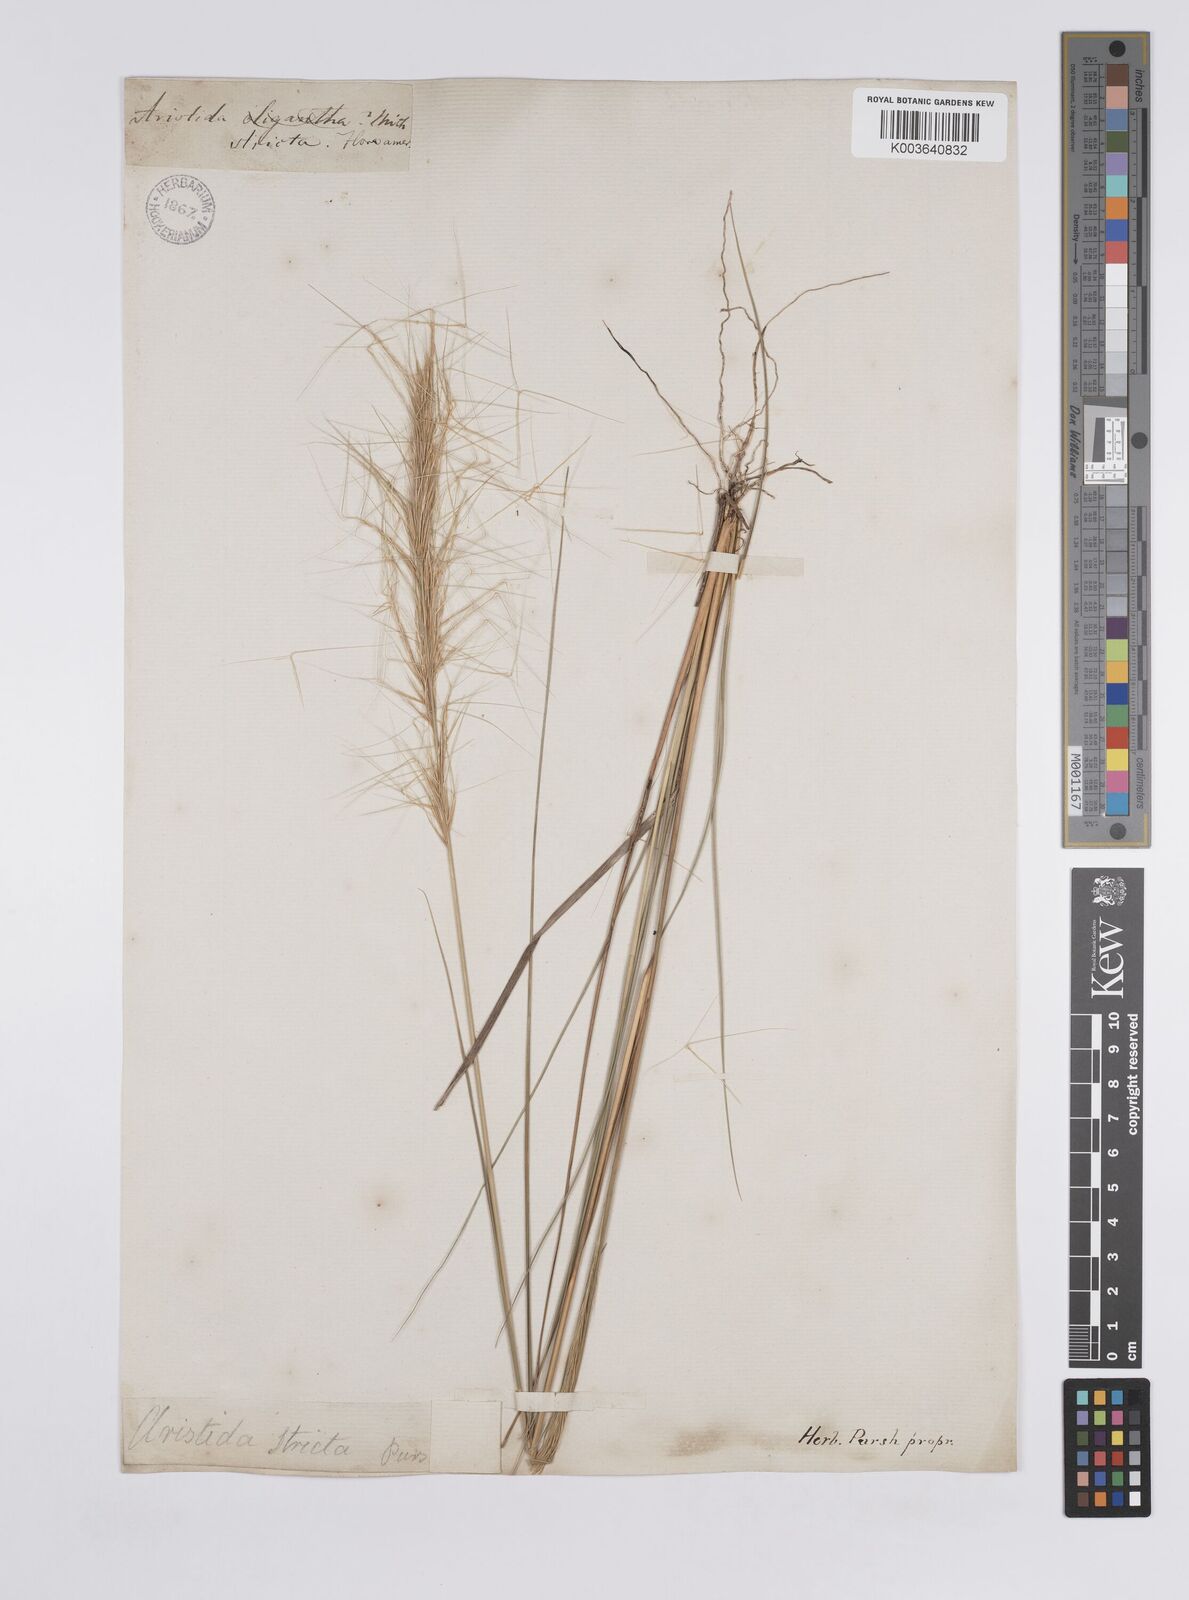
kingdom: Plantae
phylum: Tracheophyta
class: Liliopsida
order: Poales
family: Poaceae
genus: Aristida
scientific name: Aristida spiciformis
